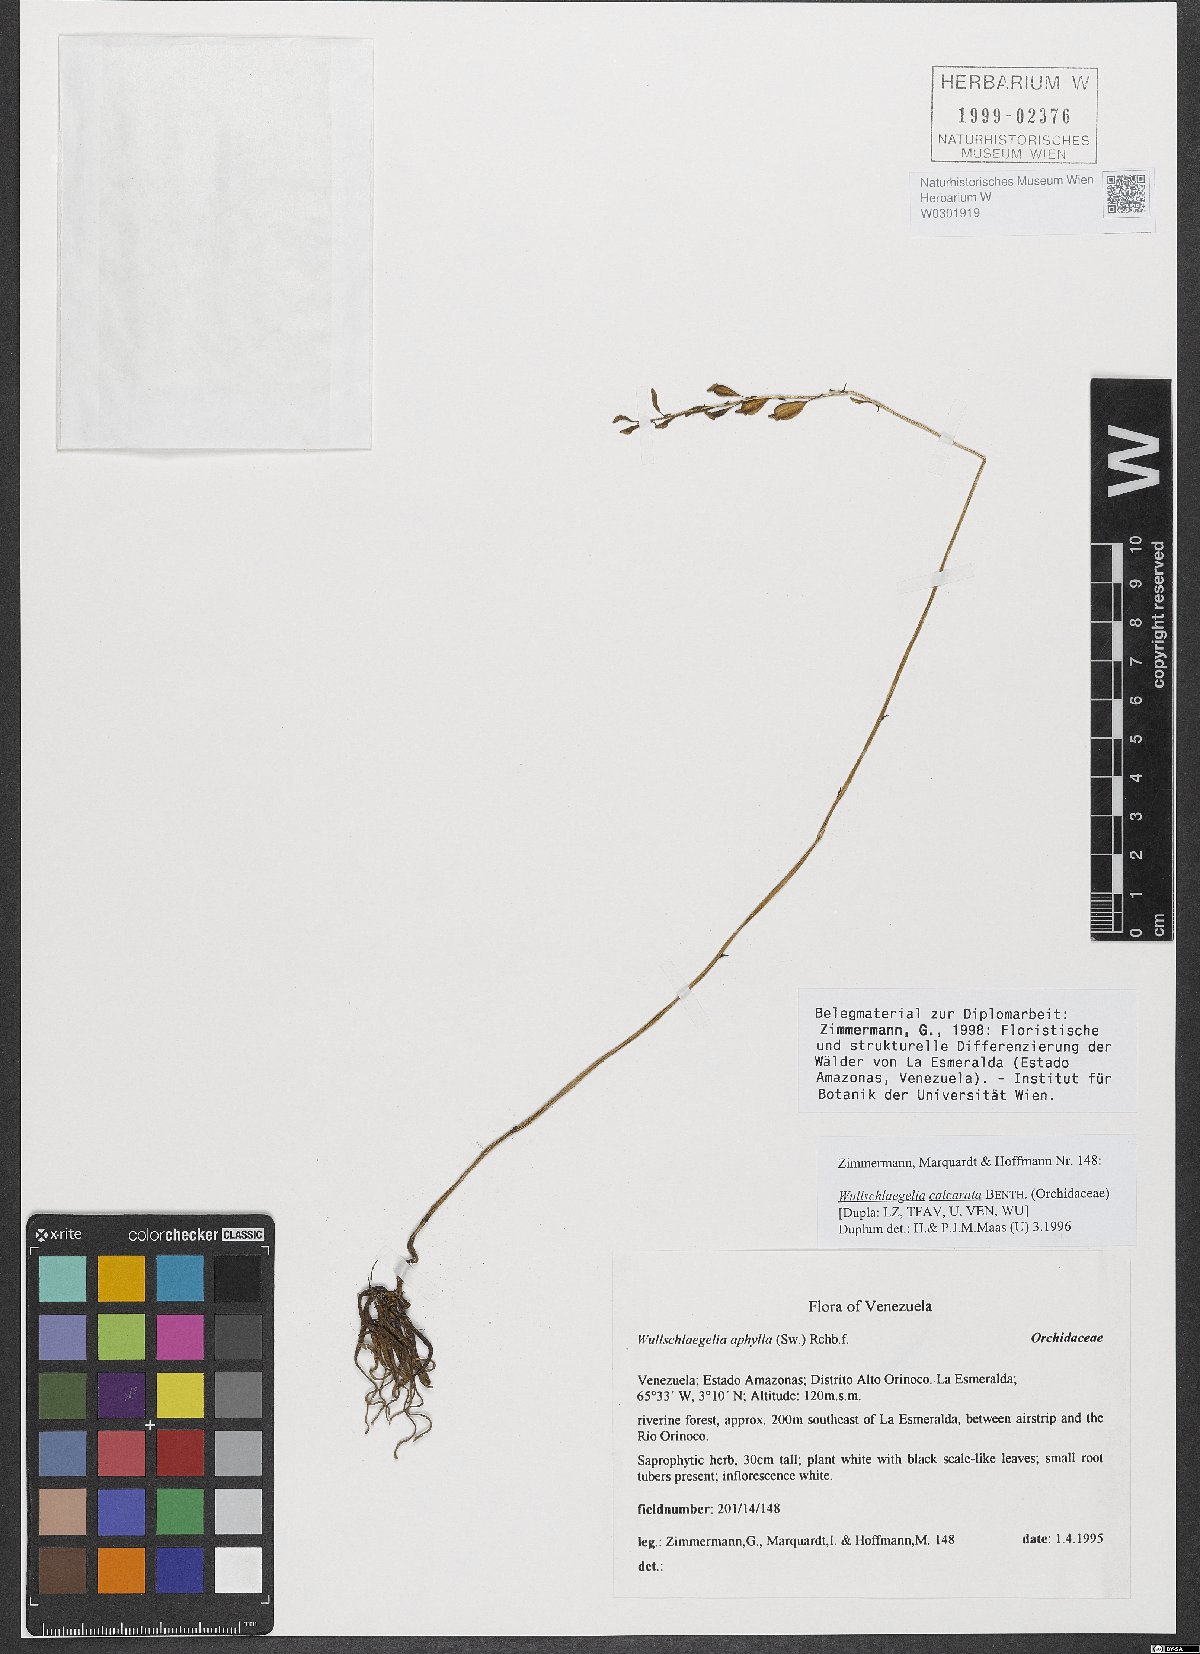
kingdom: Plantae
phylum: Tracheophyta
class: Liliopsida
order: Asparagales
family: Orchidaceae
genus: Wullschlaegelia
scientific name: Wullschlaegelia calcarata
